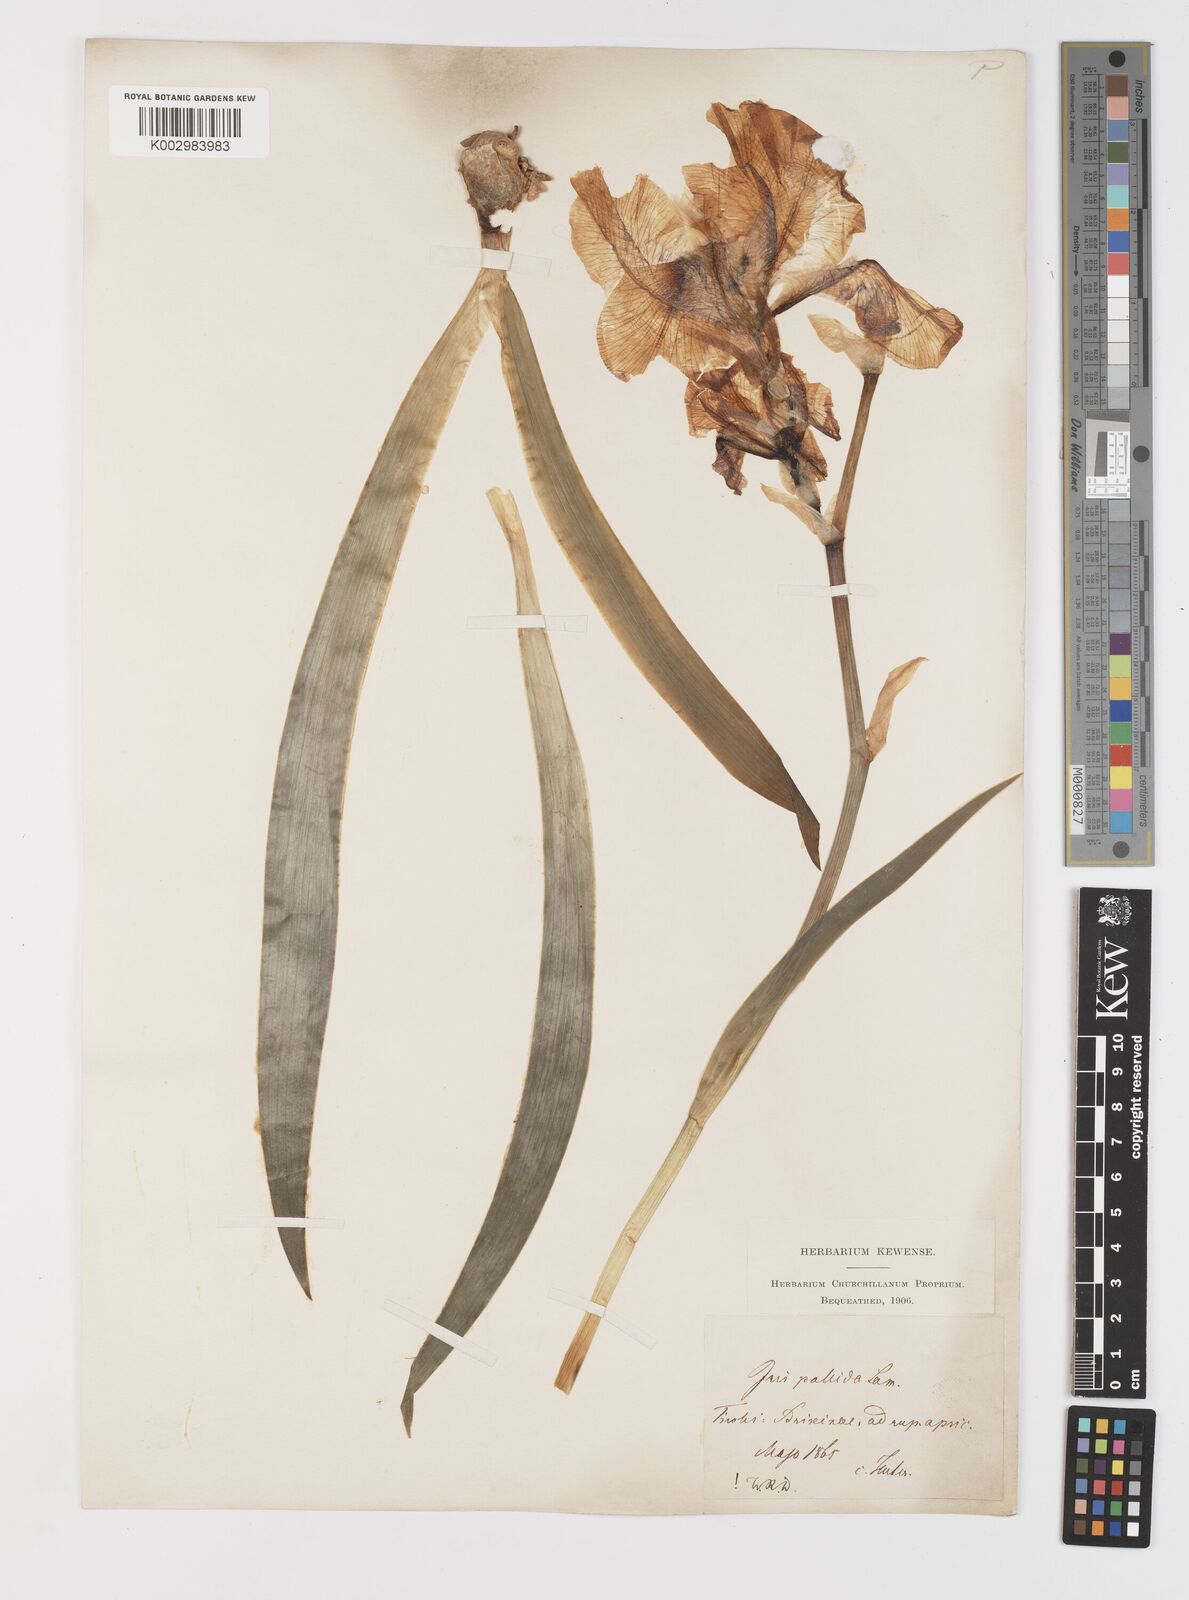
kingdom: Plantae
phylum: Tracheophyta
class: Liliopsida
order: Asparagales
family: Iridaceae
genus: Iris
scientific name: Iris halophila
